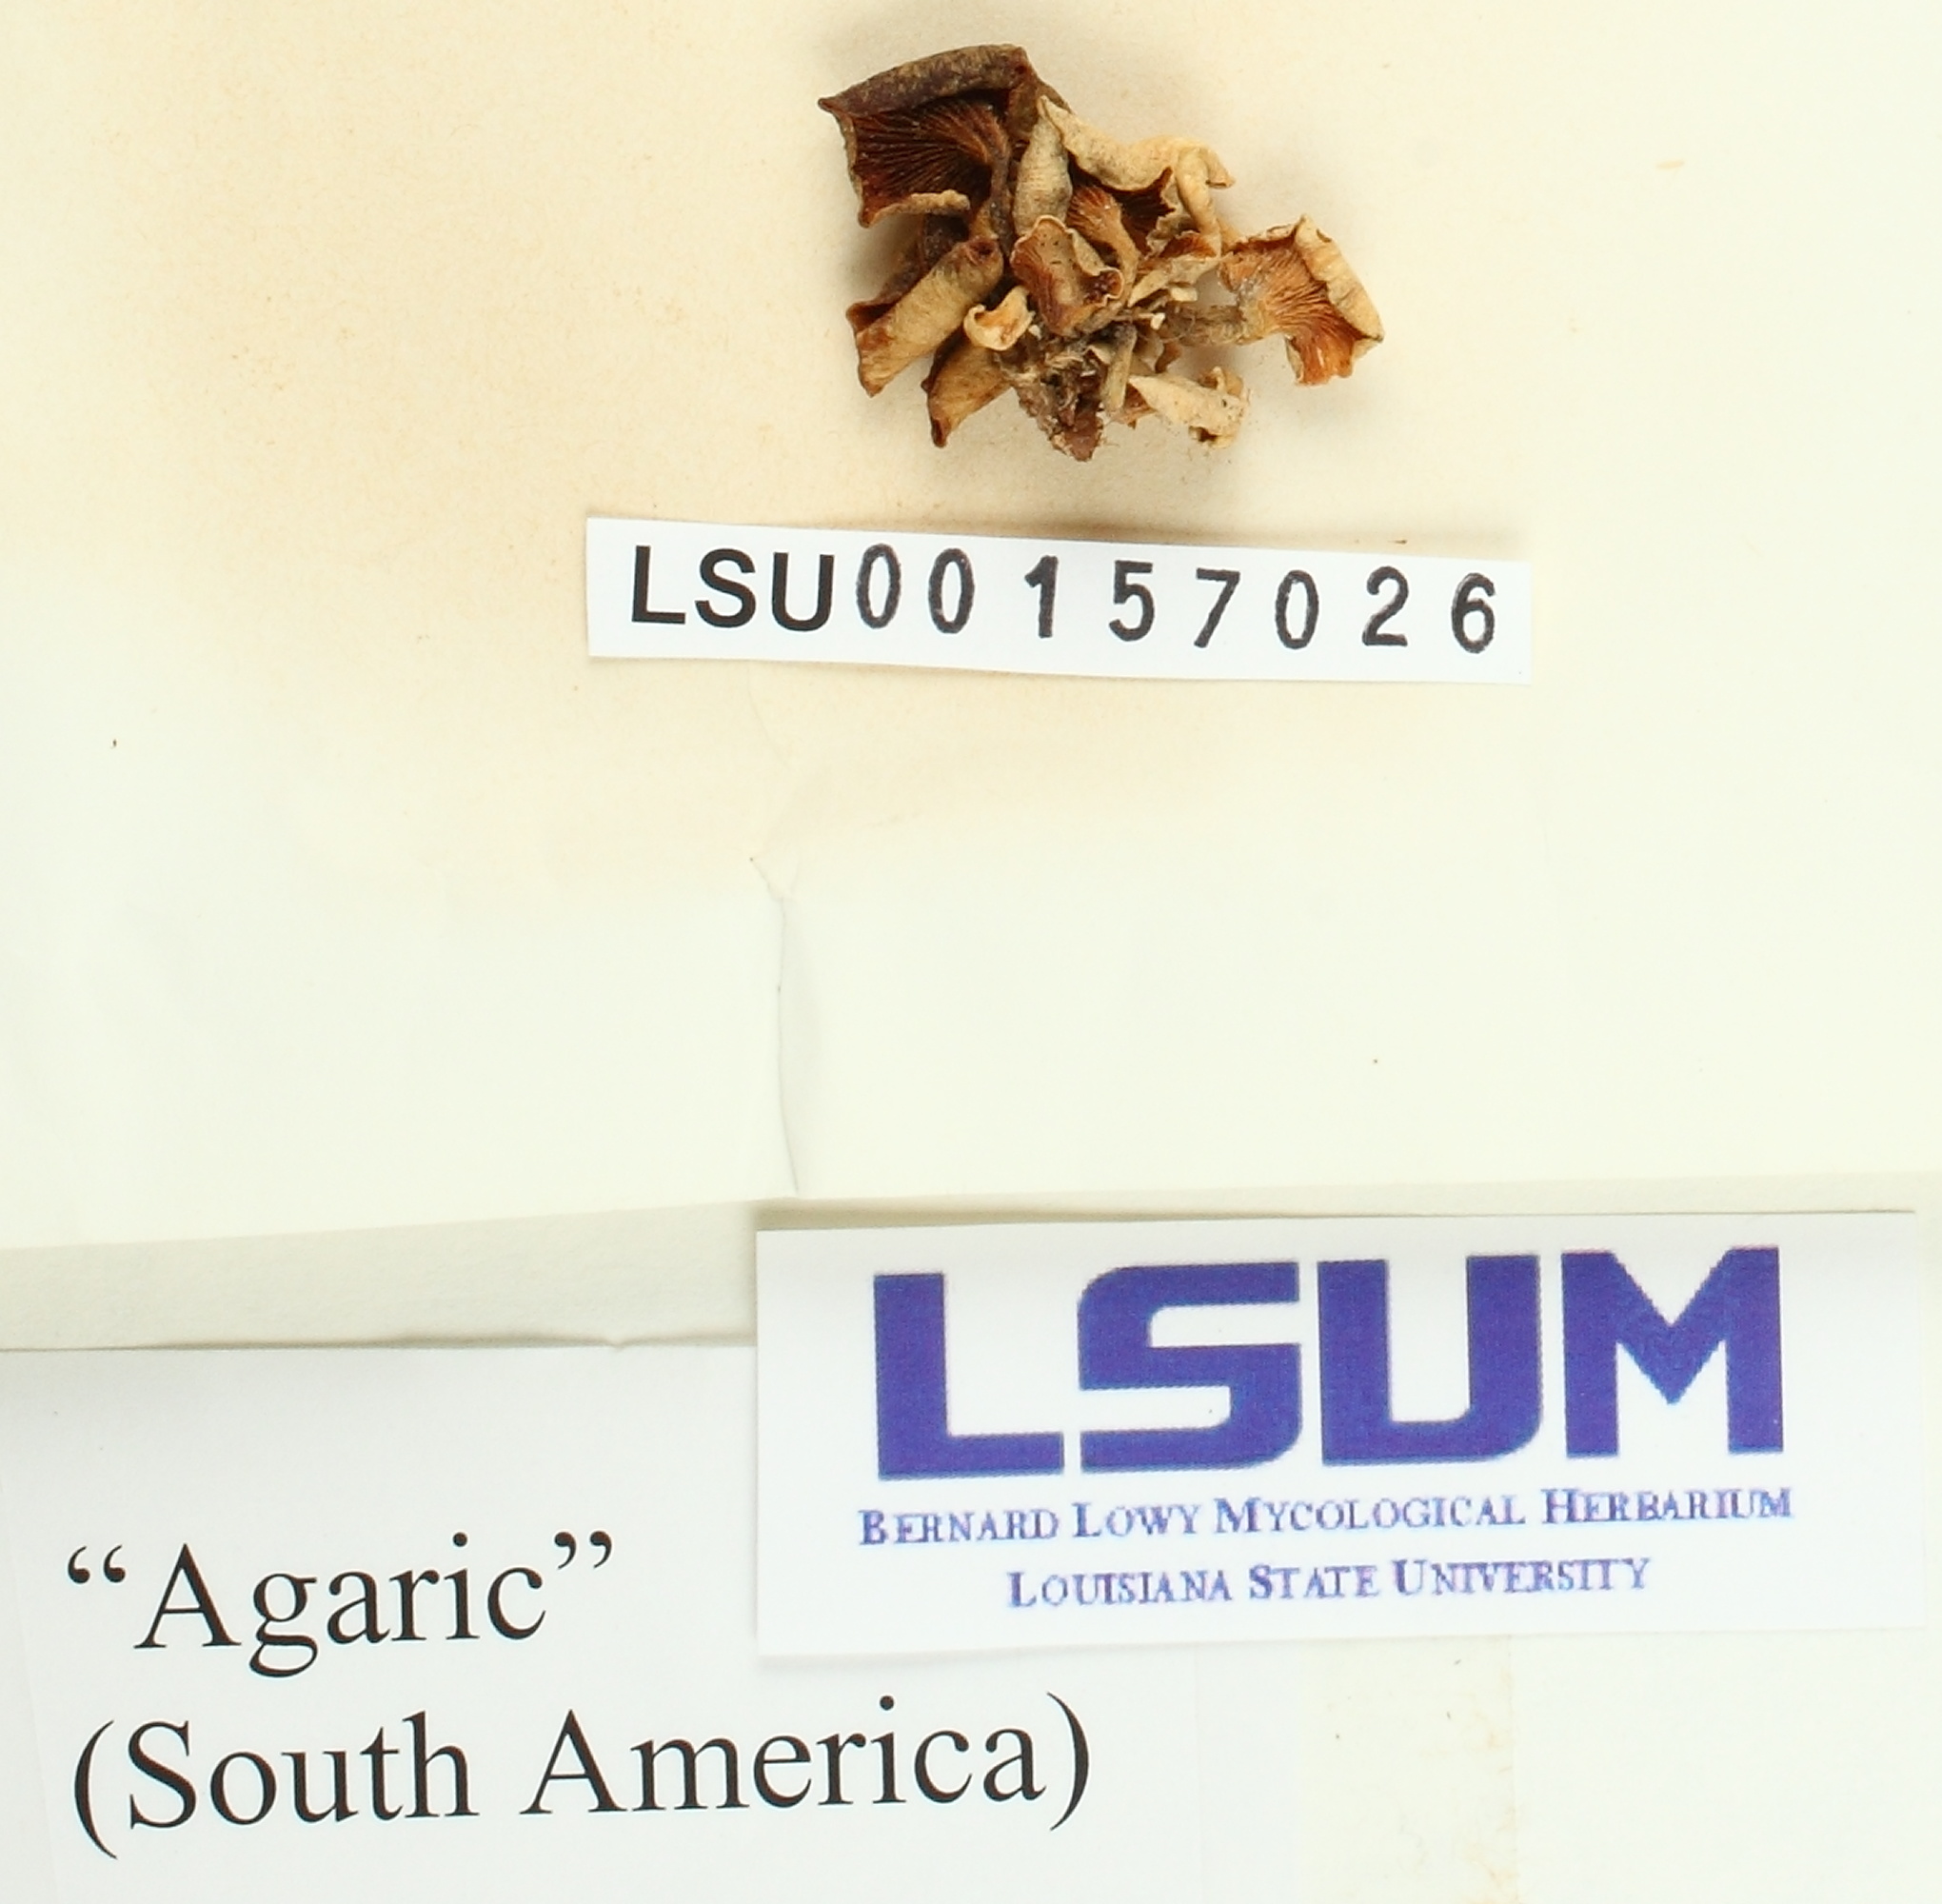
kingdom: Fungi
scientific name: Fungi
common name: Fungi
